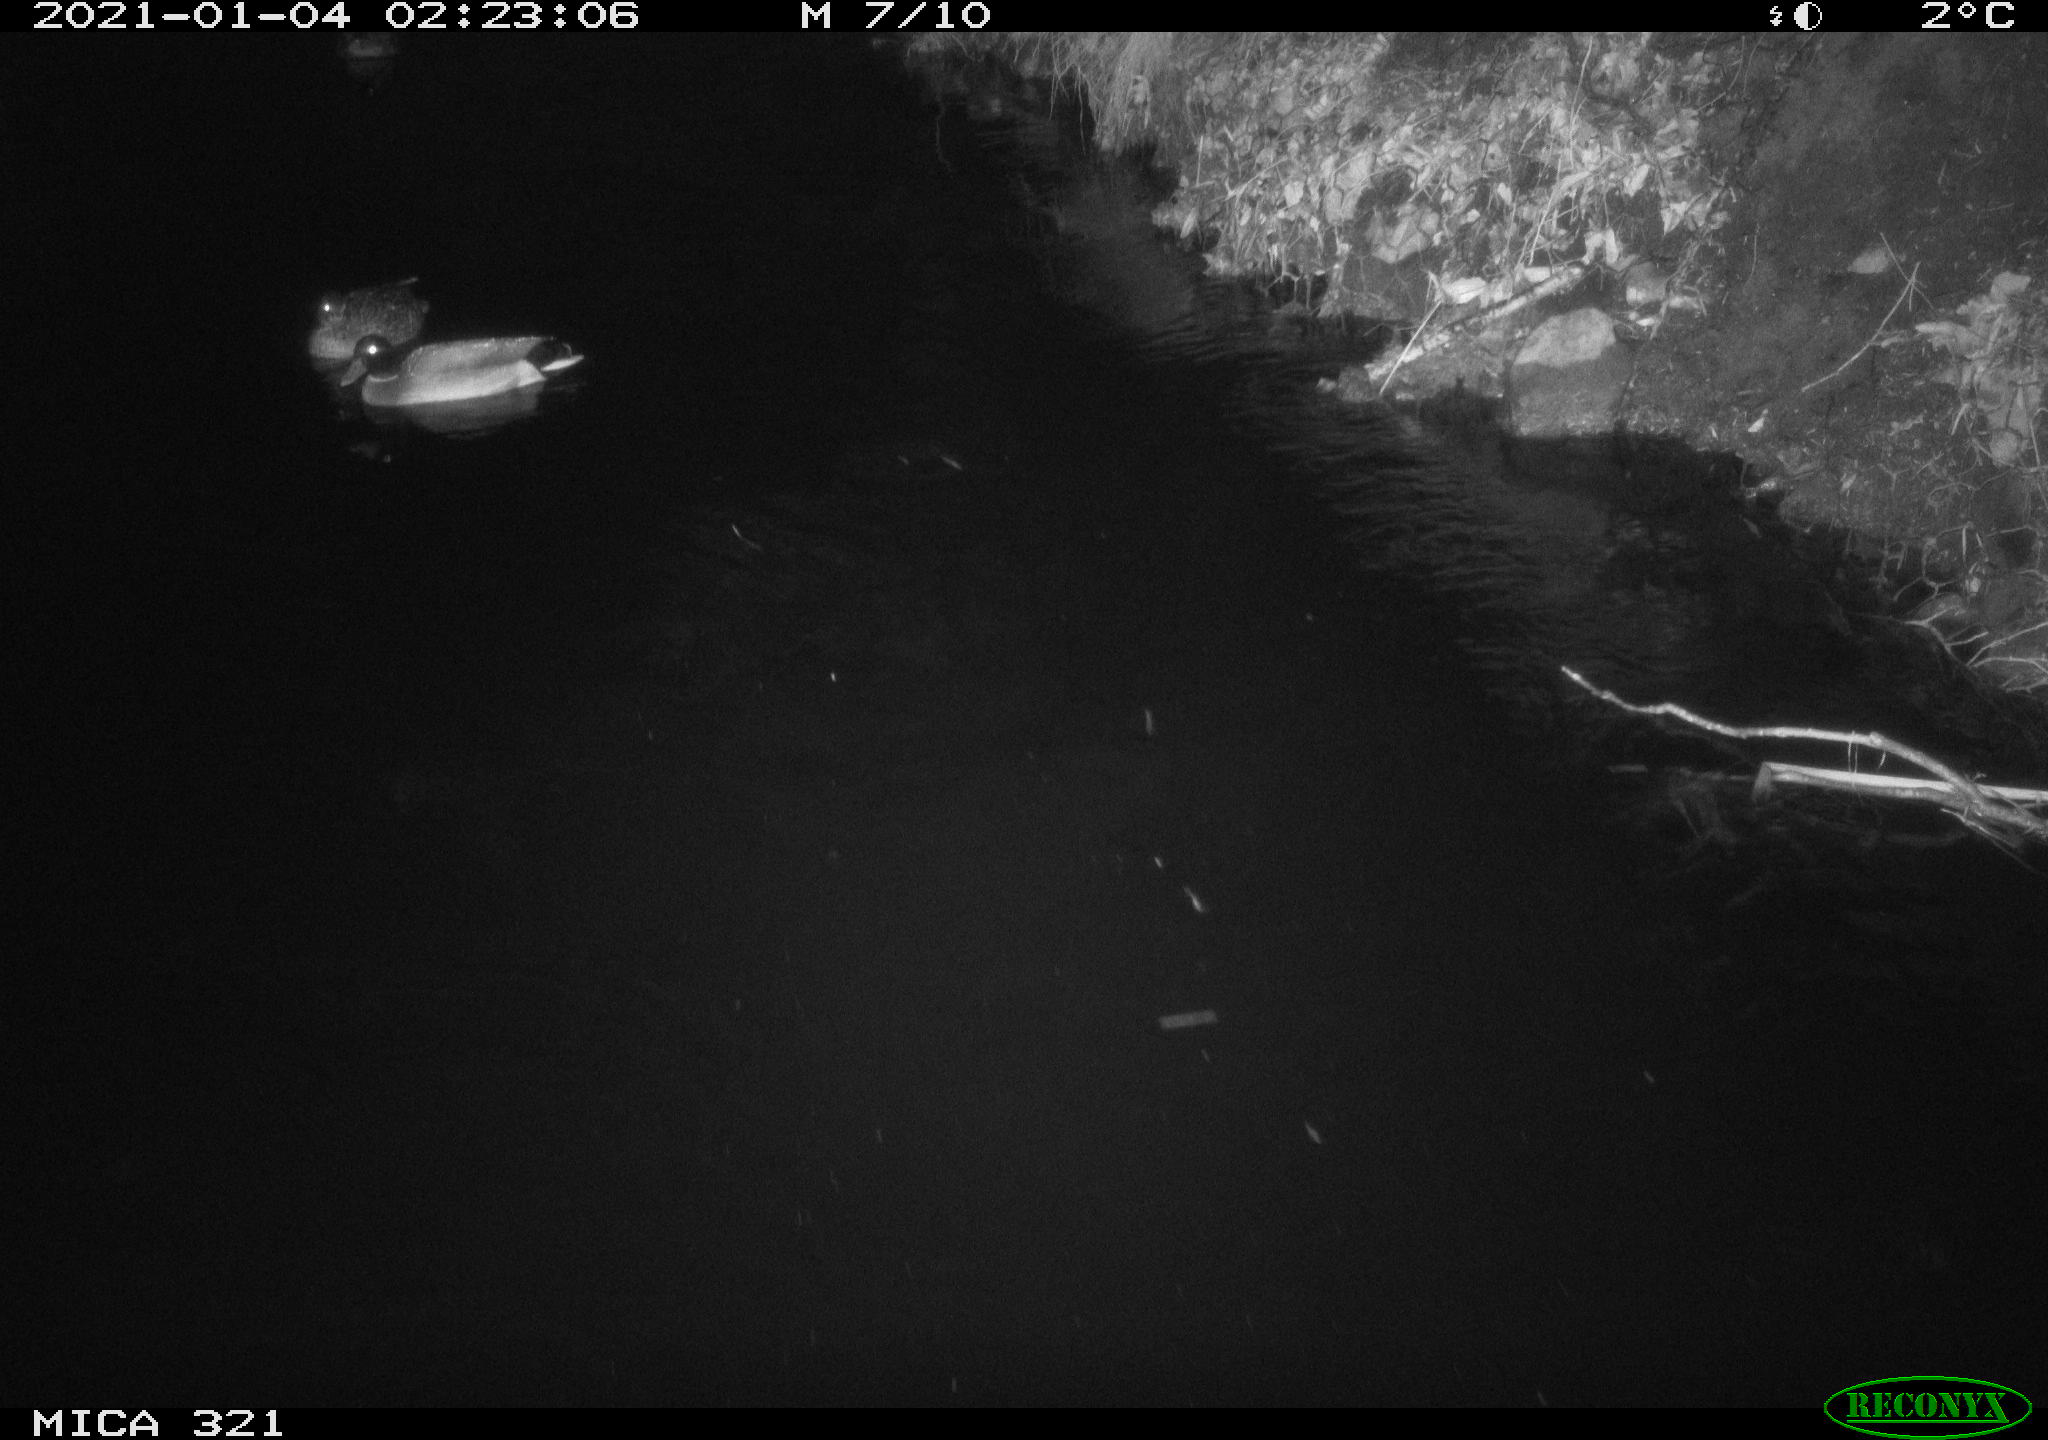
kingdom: Animalia
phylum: Chordata
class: Aves
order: Anseriformes
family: Anatidae
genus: Anas
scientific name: Anas platyrhynchos
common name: Mallard
